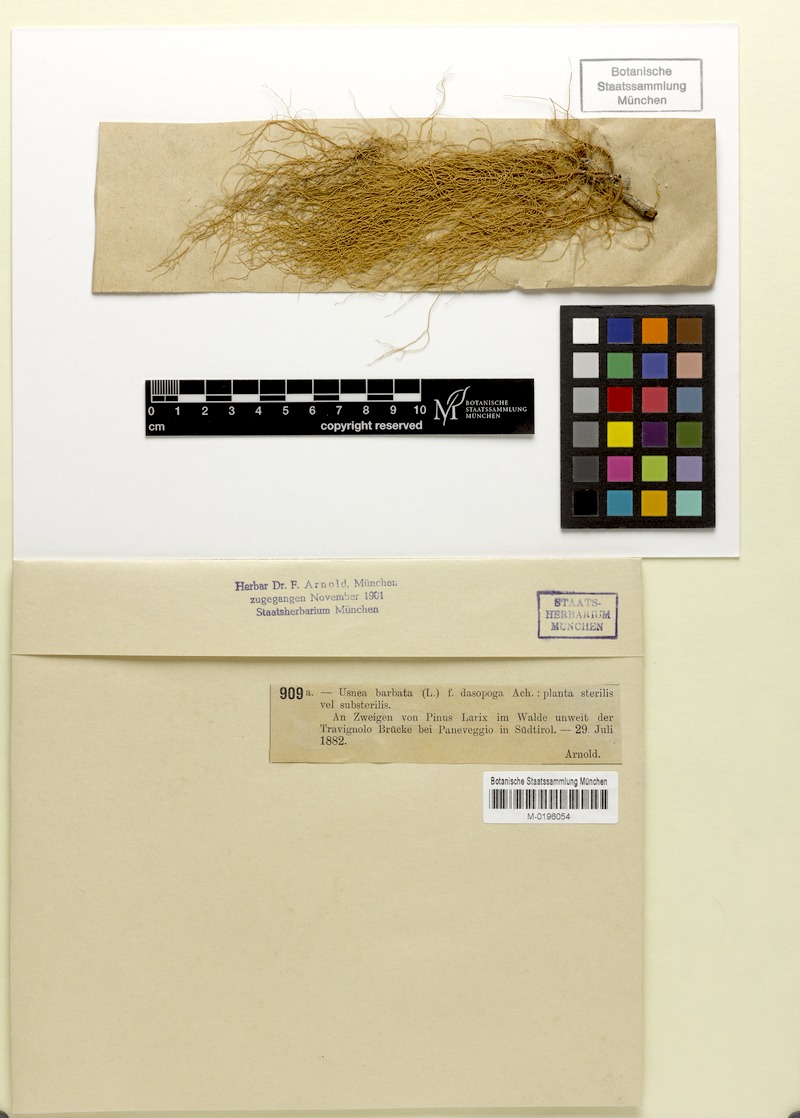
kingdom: Fungi
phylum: Ascomycota
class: Lecanoromycetes
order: Lecanorales
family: Parmeliaceae
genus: Usnea
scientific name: Usnea dasopoga
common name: Fishbone beard lichen
